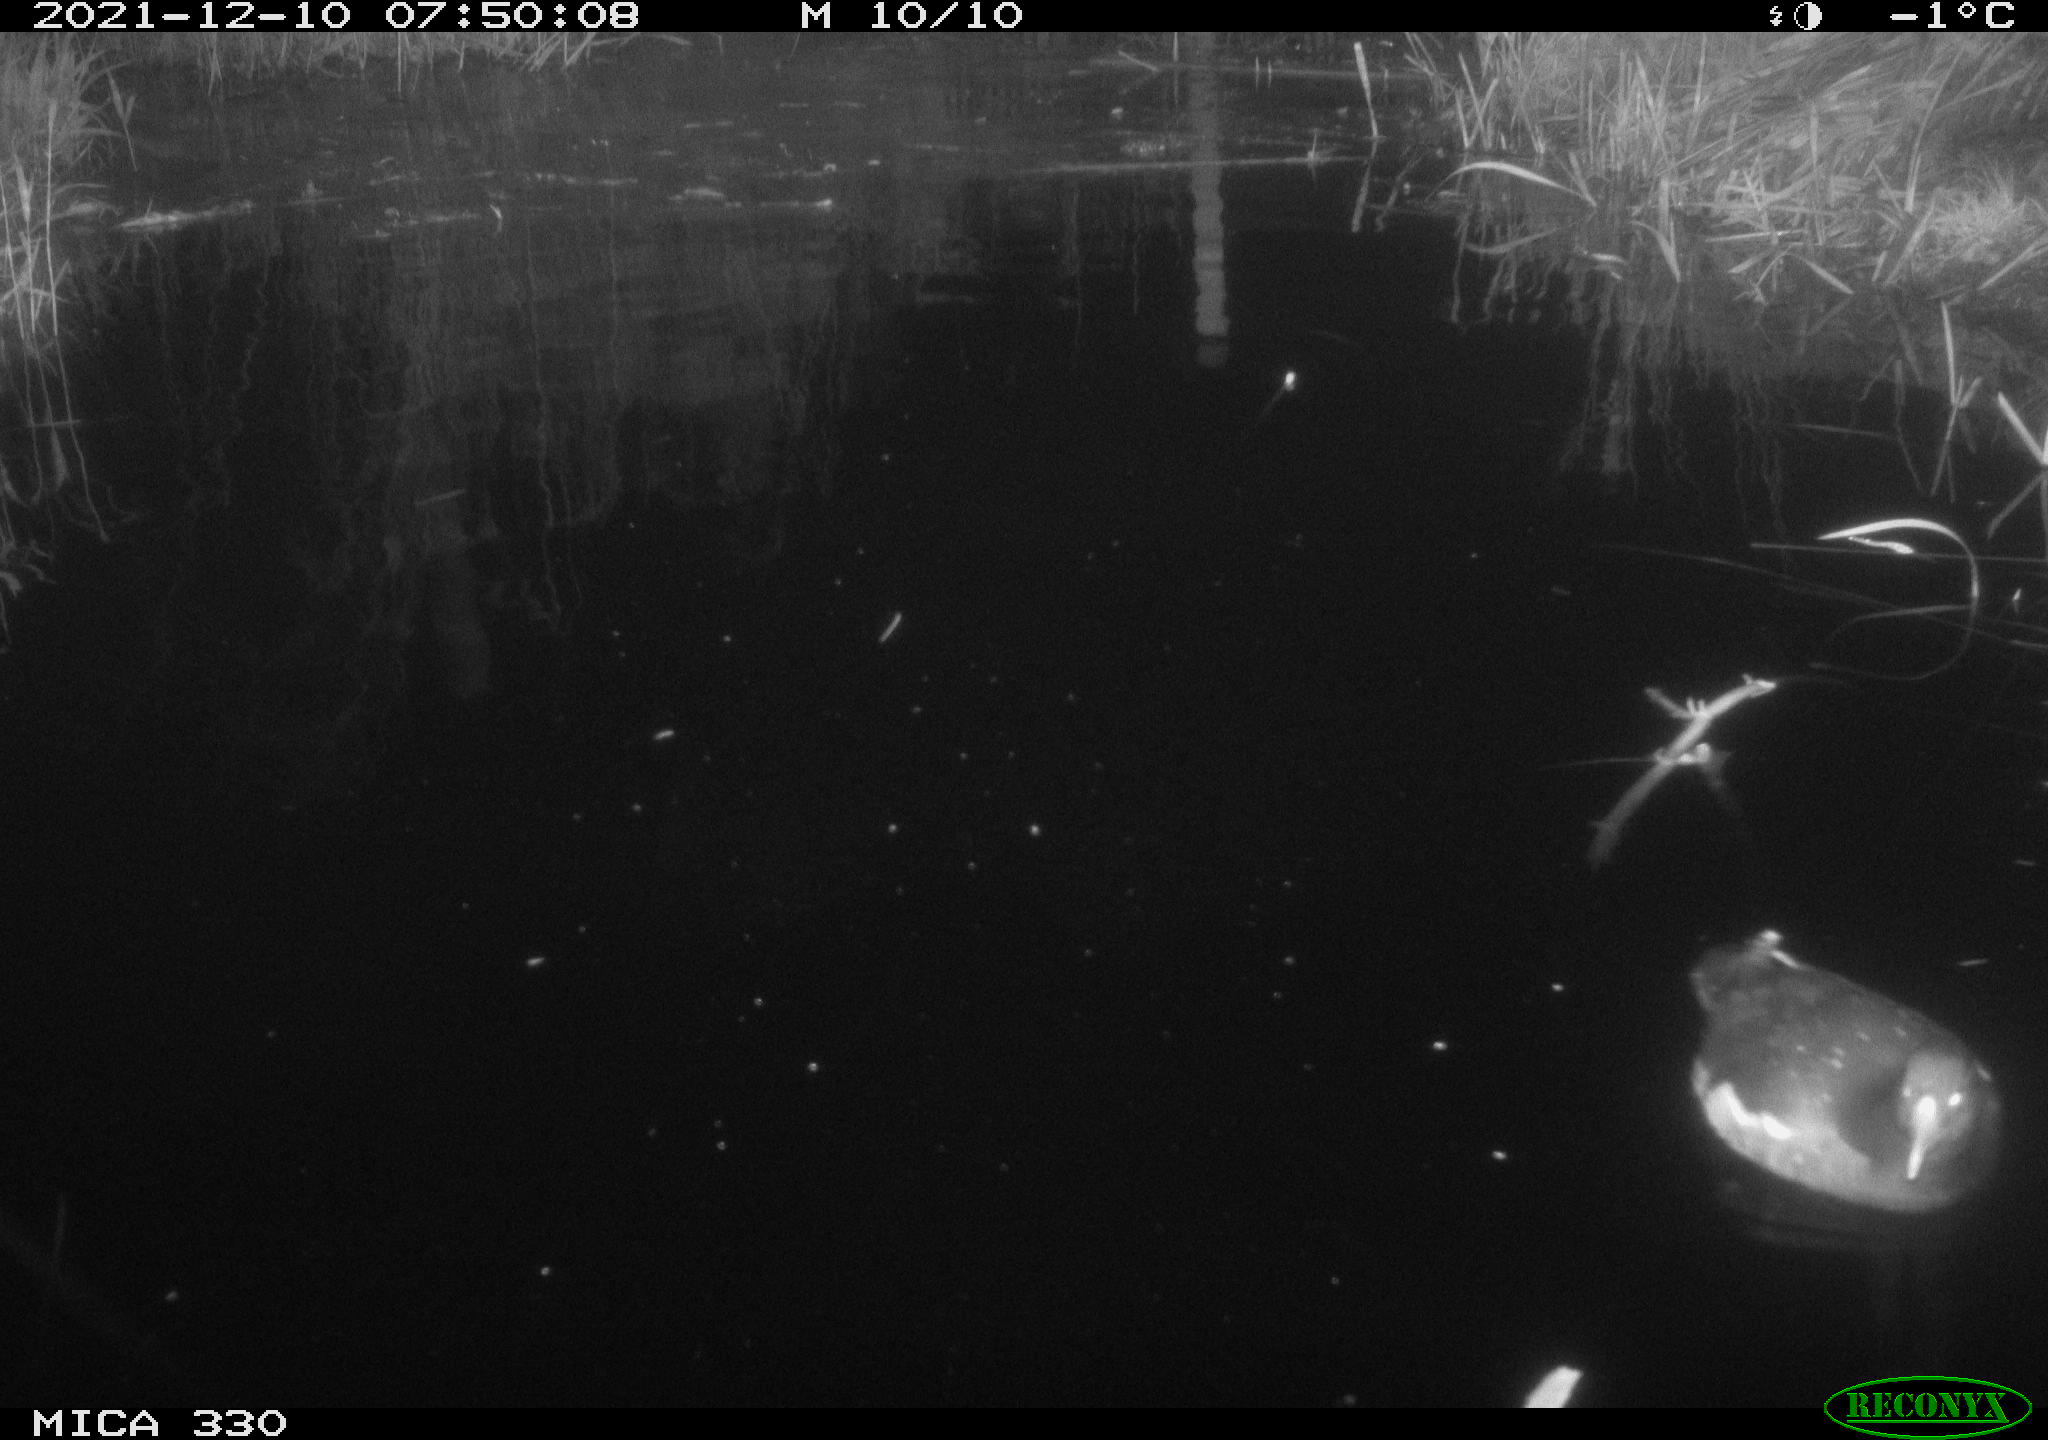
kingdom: Animalia
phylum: Chordata
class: Aves
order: Gruiformes
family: Rallidae
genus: Gallinula
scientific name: Gallinula chloropus
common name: Common moorhen
